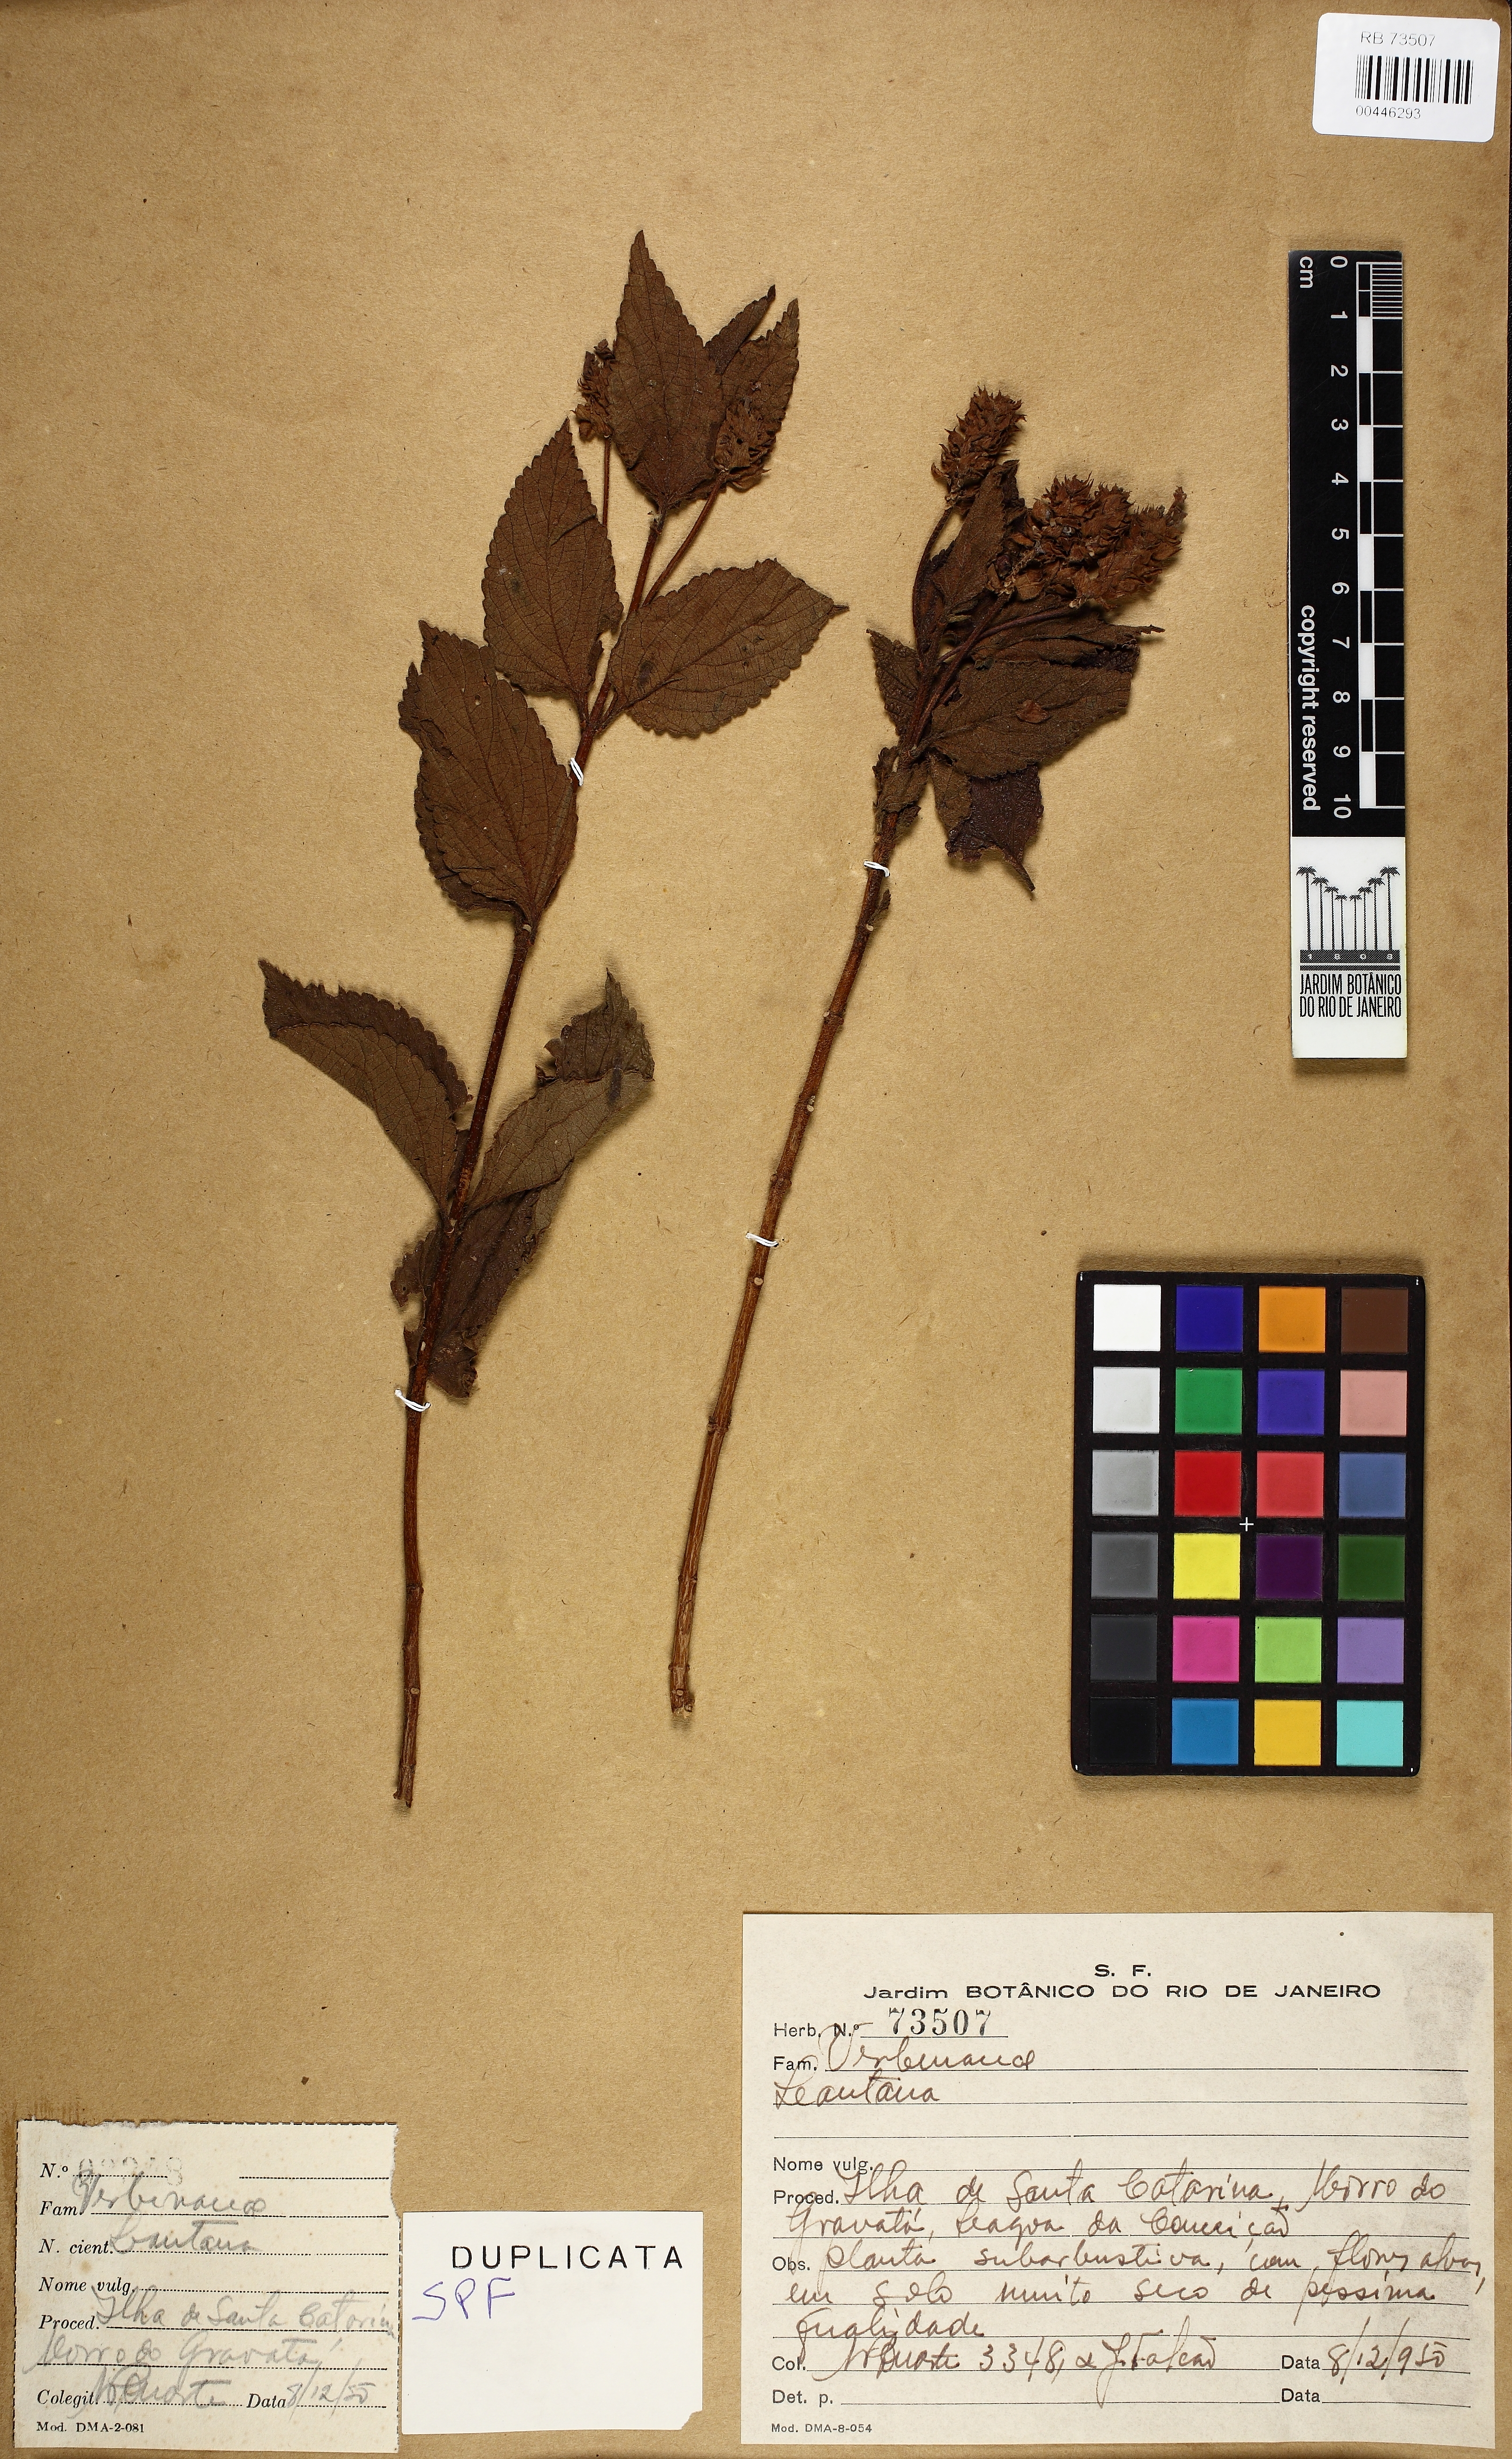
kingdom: Plantae
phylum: Tracheophyta
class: Magnoliopsida
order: Lamiales
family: Verbenaceae
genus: Lantana
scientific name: Lantana
